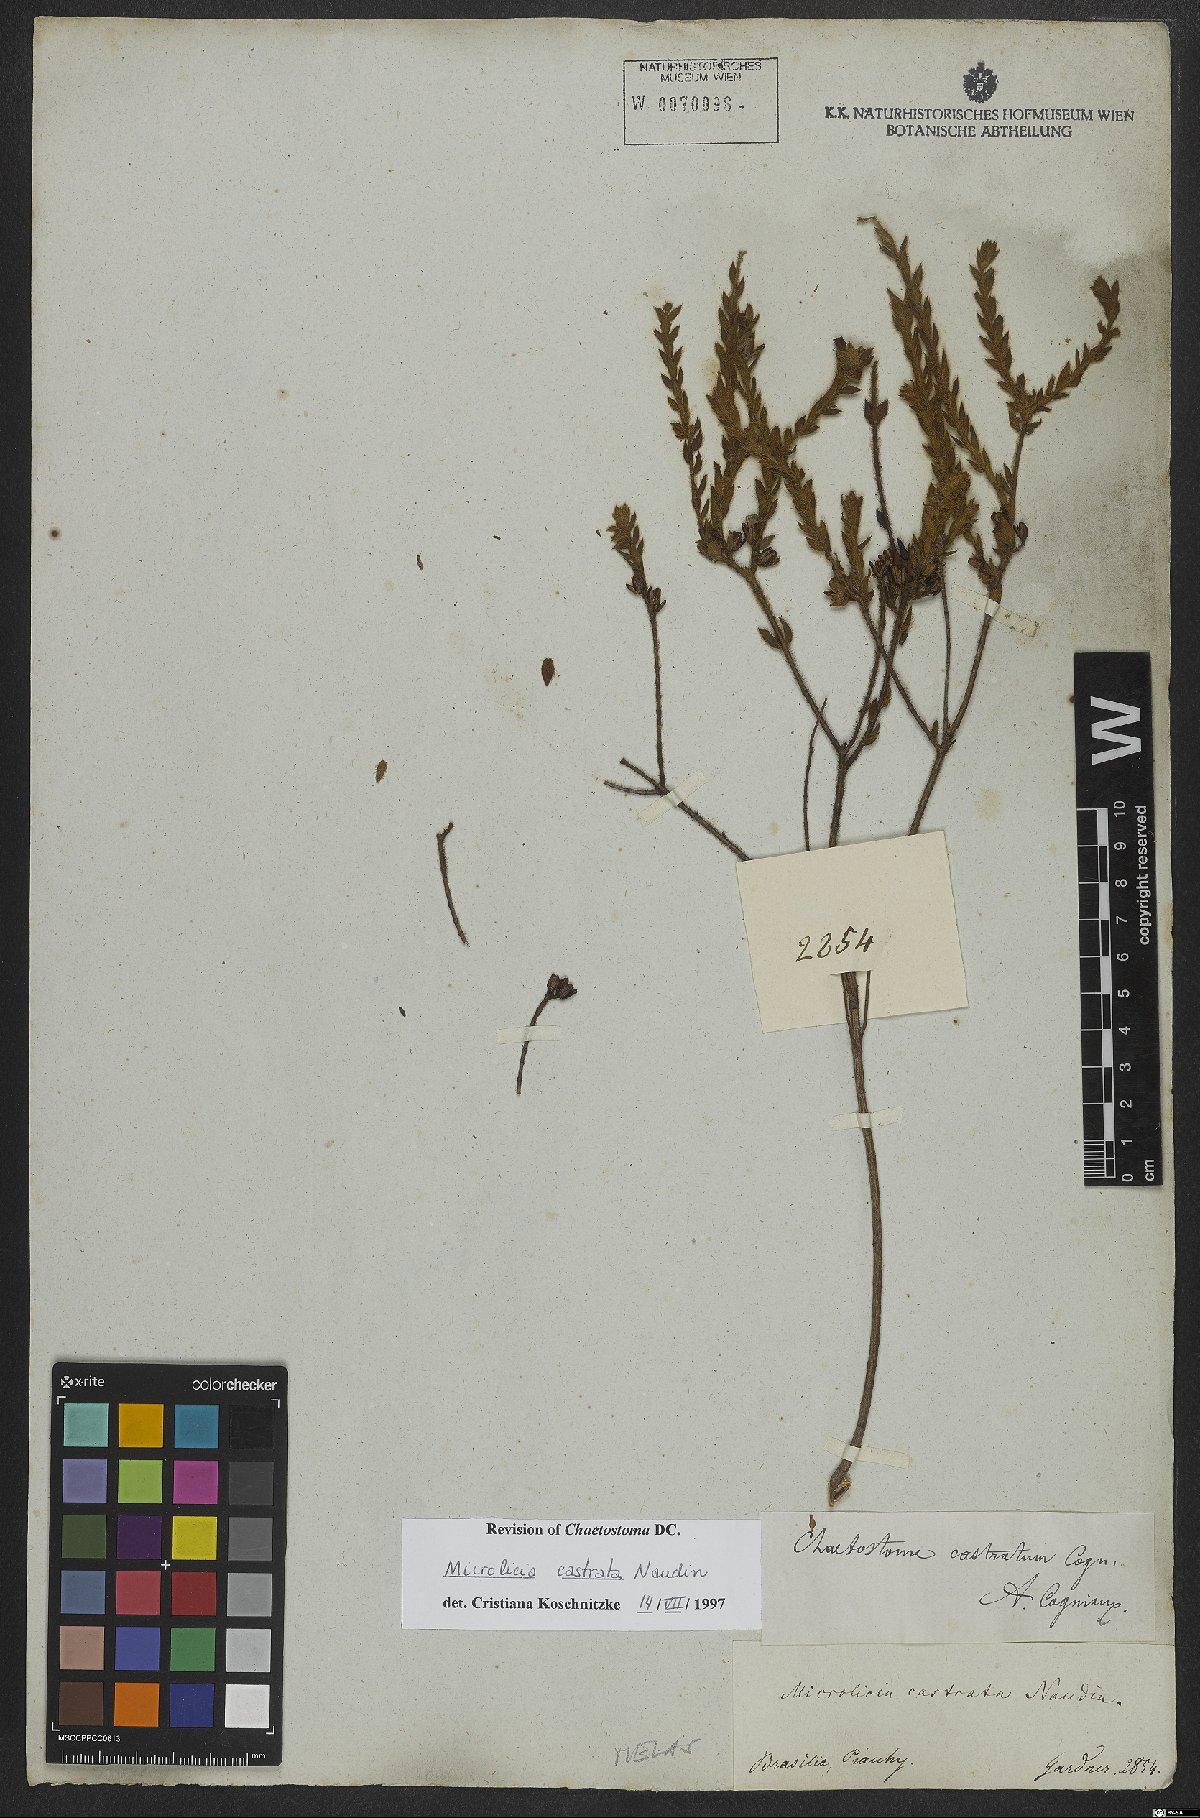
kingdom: Plantae
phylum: Tracheophyta
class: Magnoliopsida
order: Myrtales
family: Melastomataceae
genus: Microlicia
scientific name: Microlicia castrata
